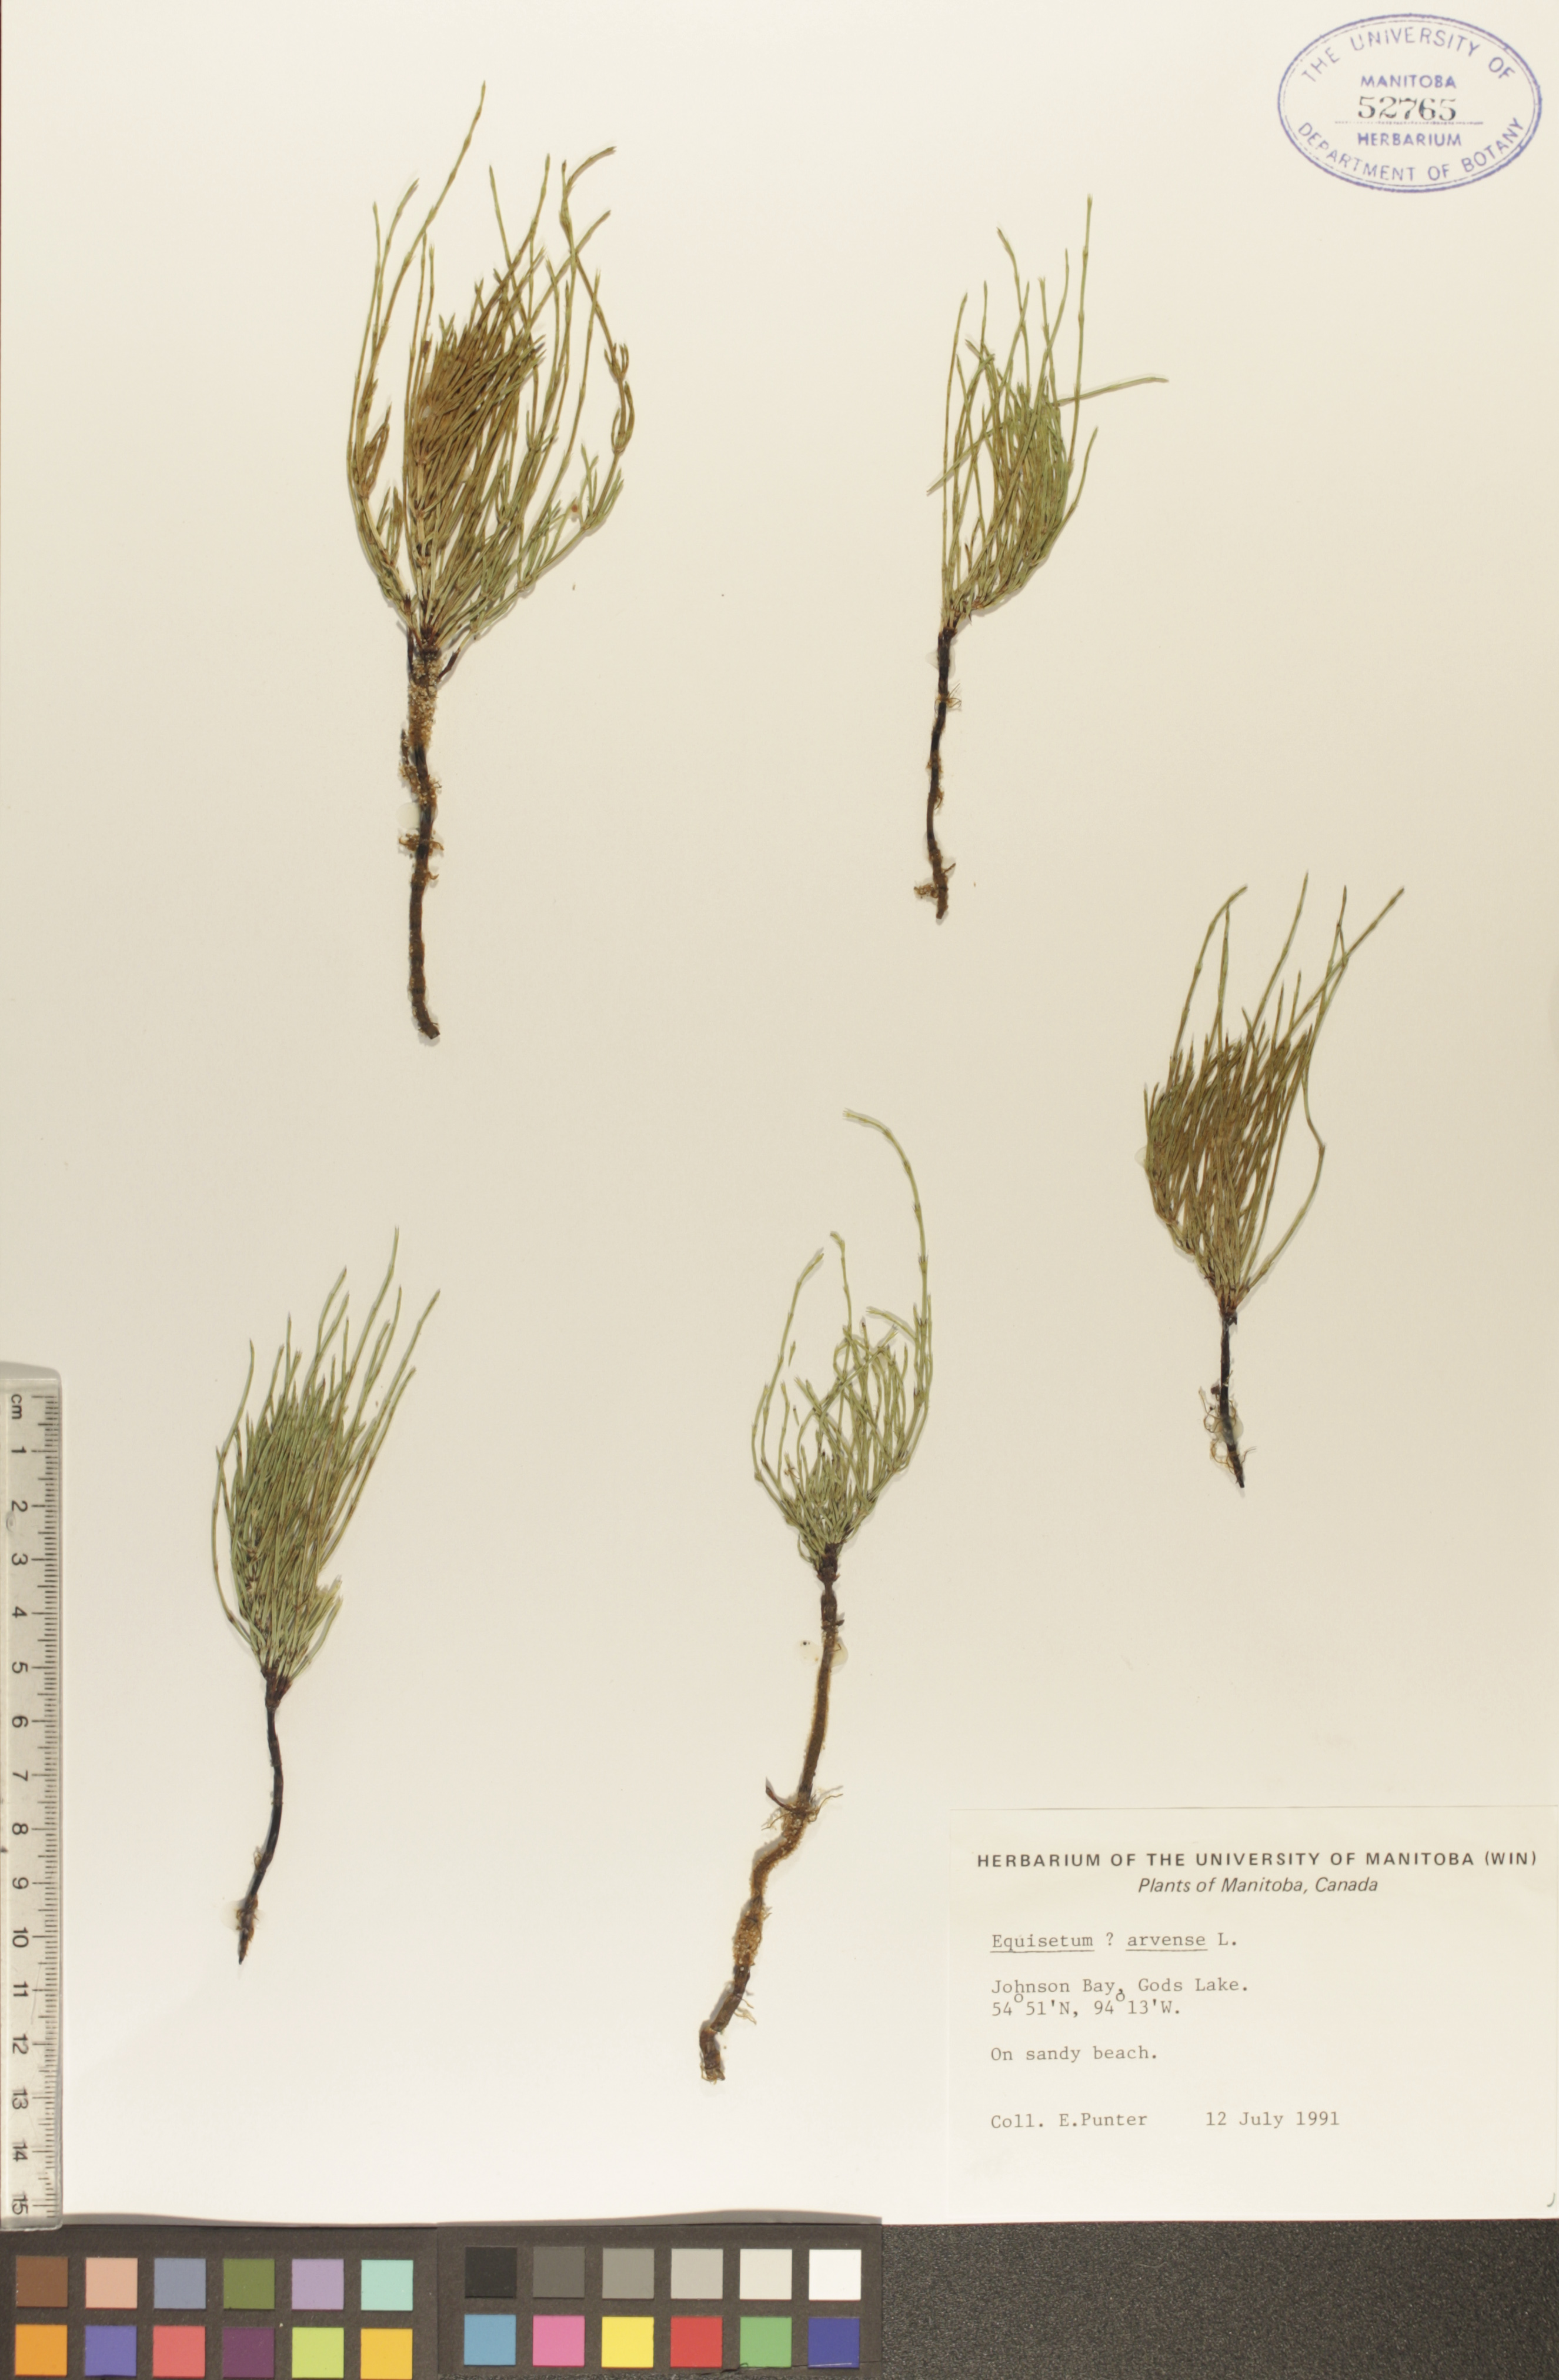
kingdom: Plantae
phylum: Tracheophyta
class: Polypodiopsida
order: Equisetales
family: Equisetaceae
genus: Equisetum
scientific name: Equisetum arvense
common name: Field horsetail
